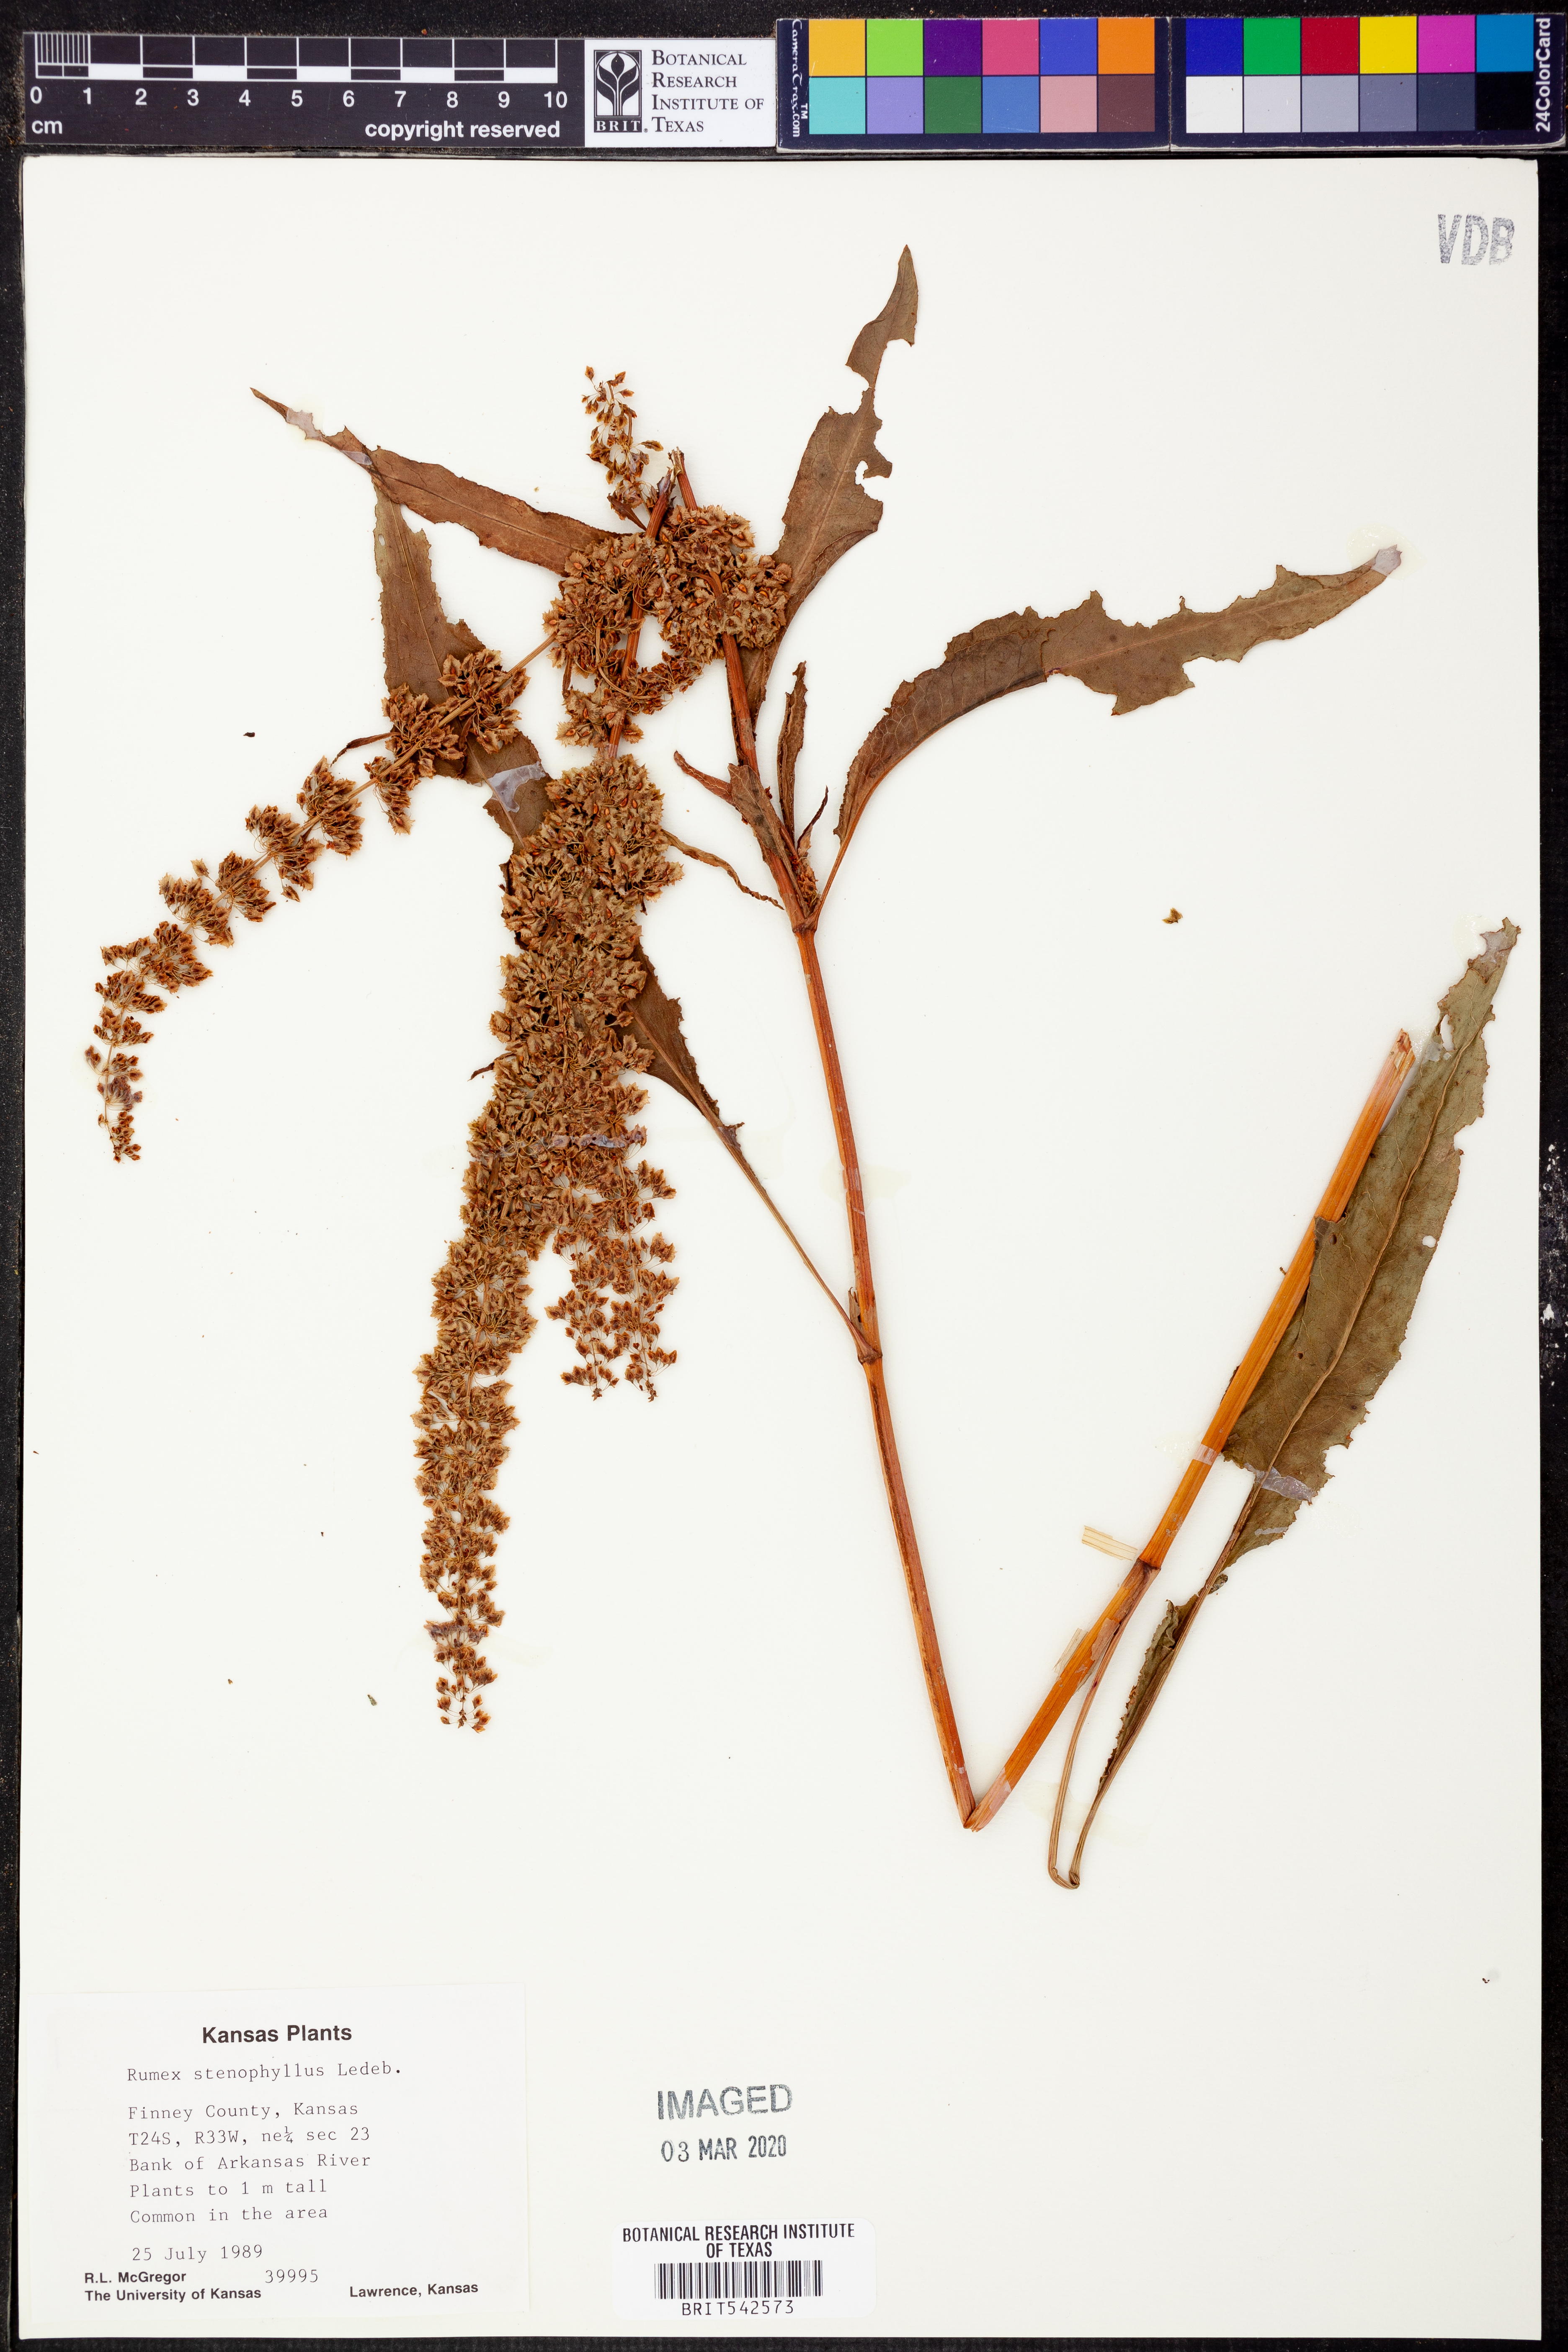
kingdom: Plantae
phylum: Tracheophyta
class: Magnoliopsida
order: Caryophyllales
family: Polygonaceae
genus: Rumex
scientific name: Rumex stenophyllus
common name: Narrowleaf dock
